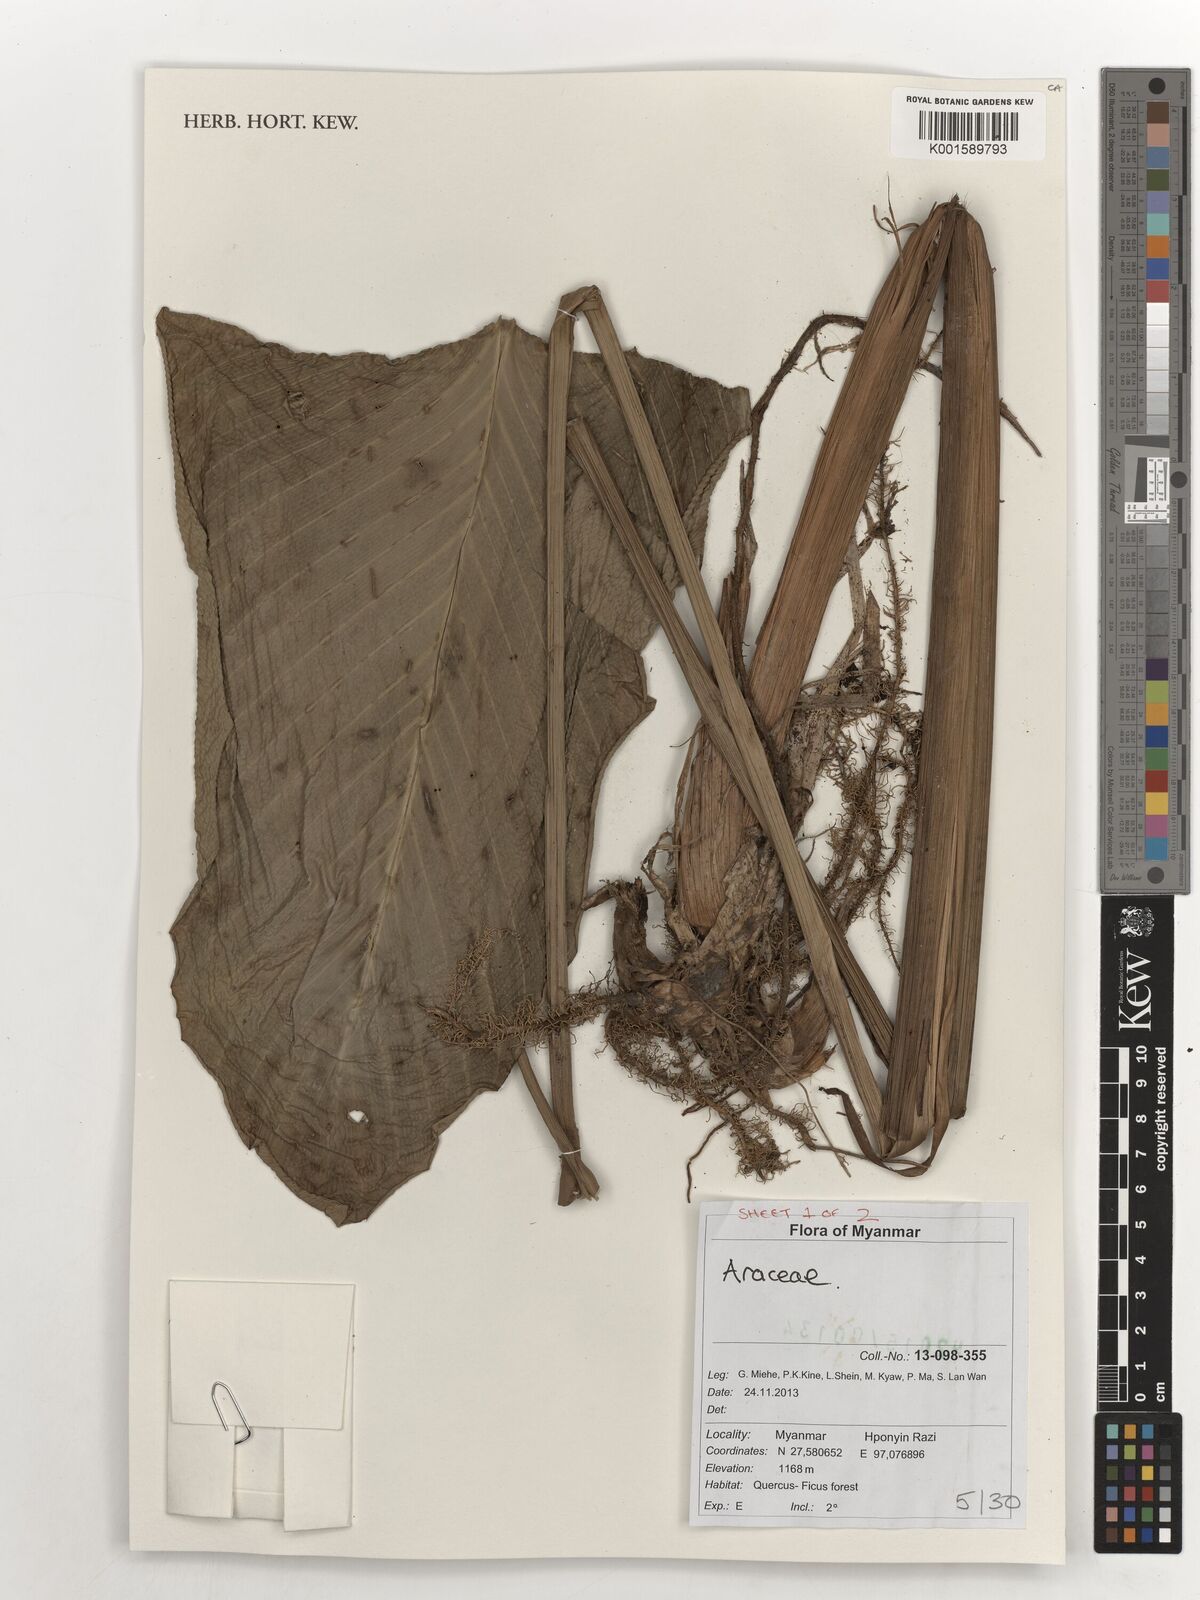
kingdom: Plantae
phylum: Tracheophyta
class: Liliopsida
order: Alismatales
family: Araceae
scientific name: Araceae
